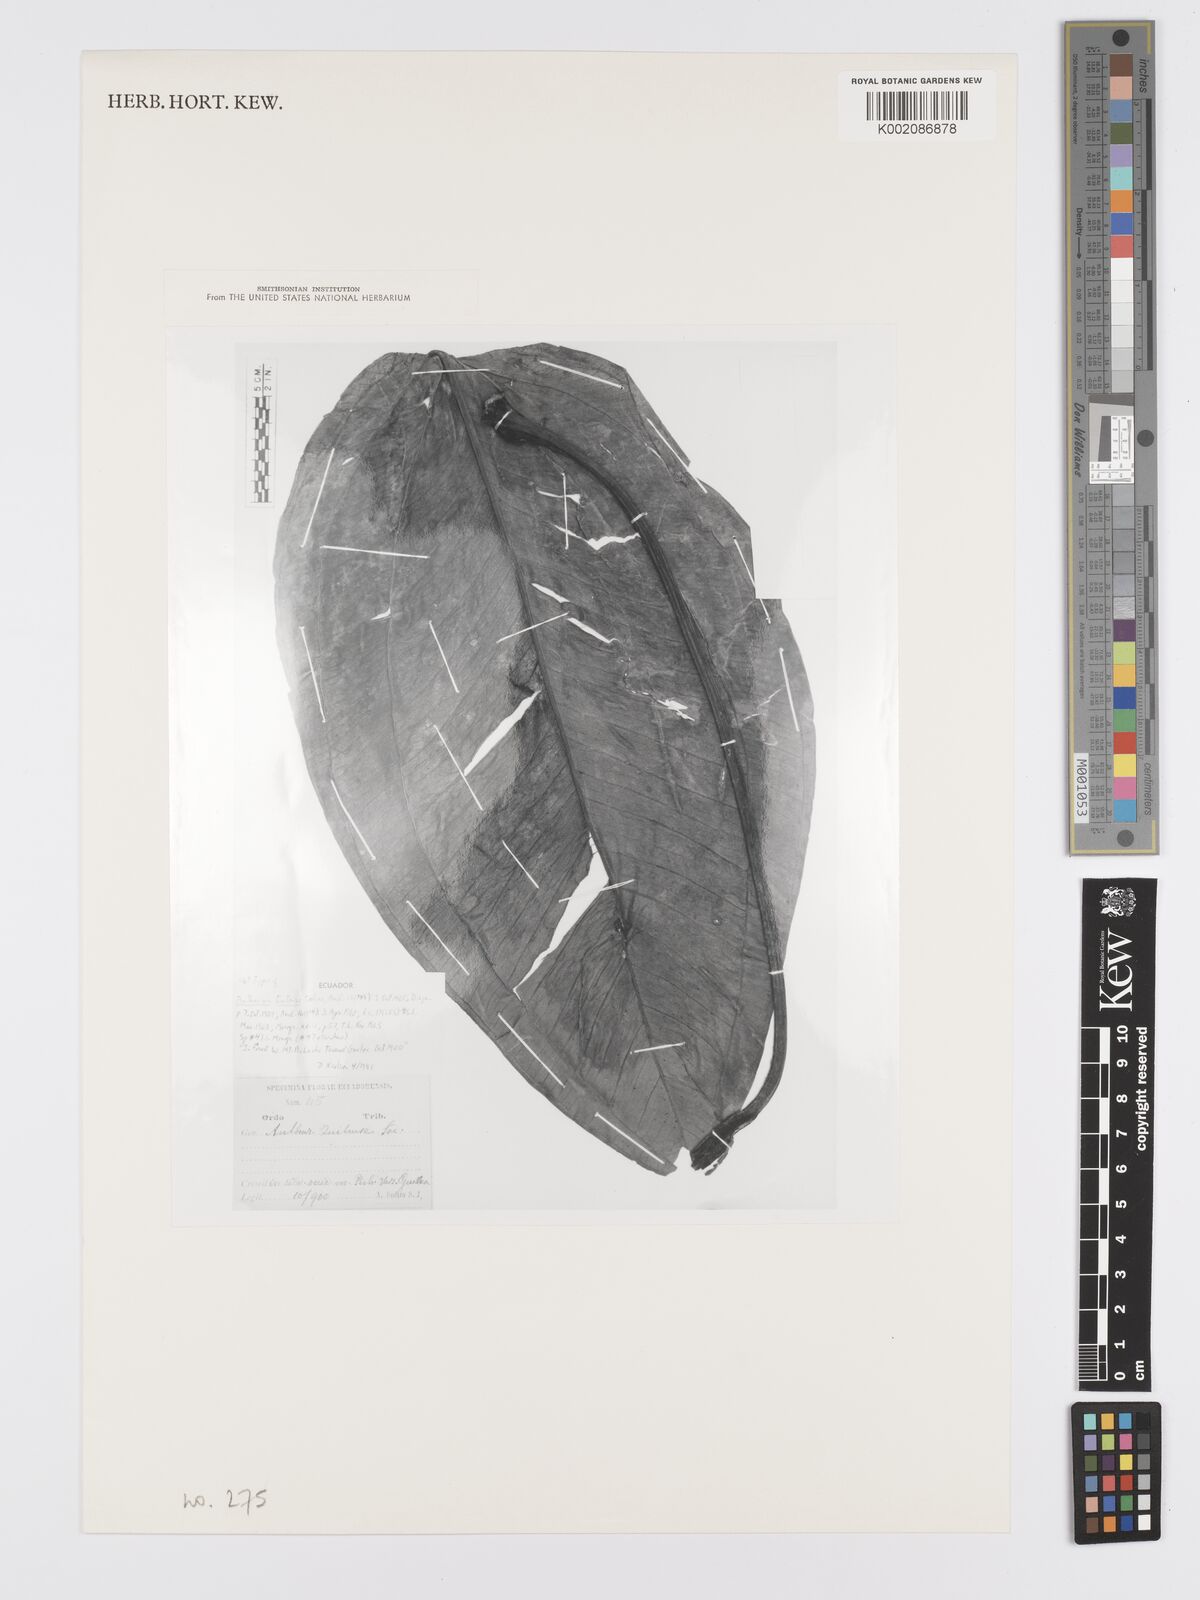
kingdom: Plantae
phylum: Tracheophyta
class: Liliopsida
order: Alismatales
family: Araceae
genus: Anthurium
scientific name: Anthurium ovatifolium
